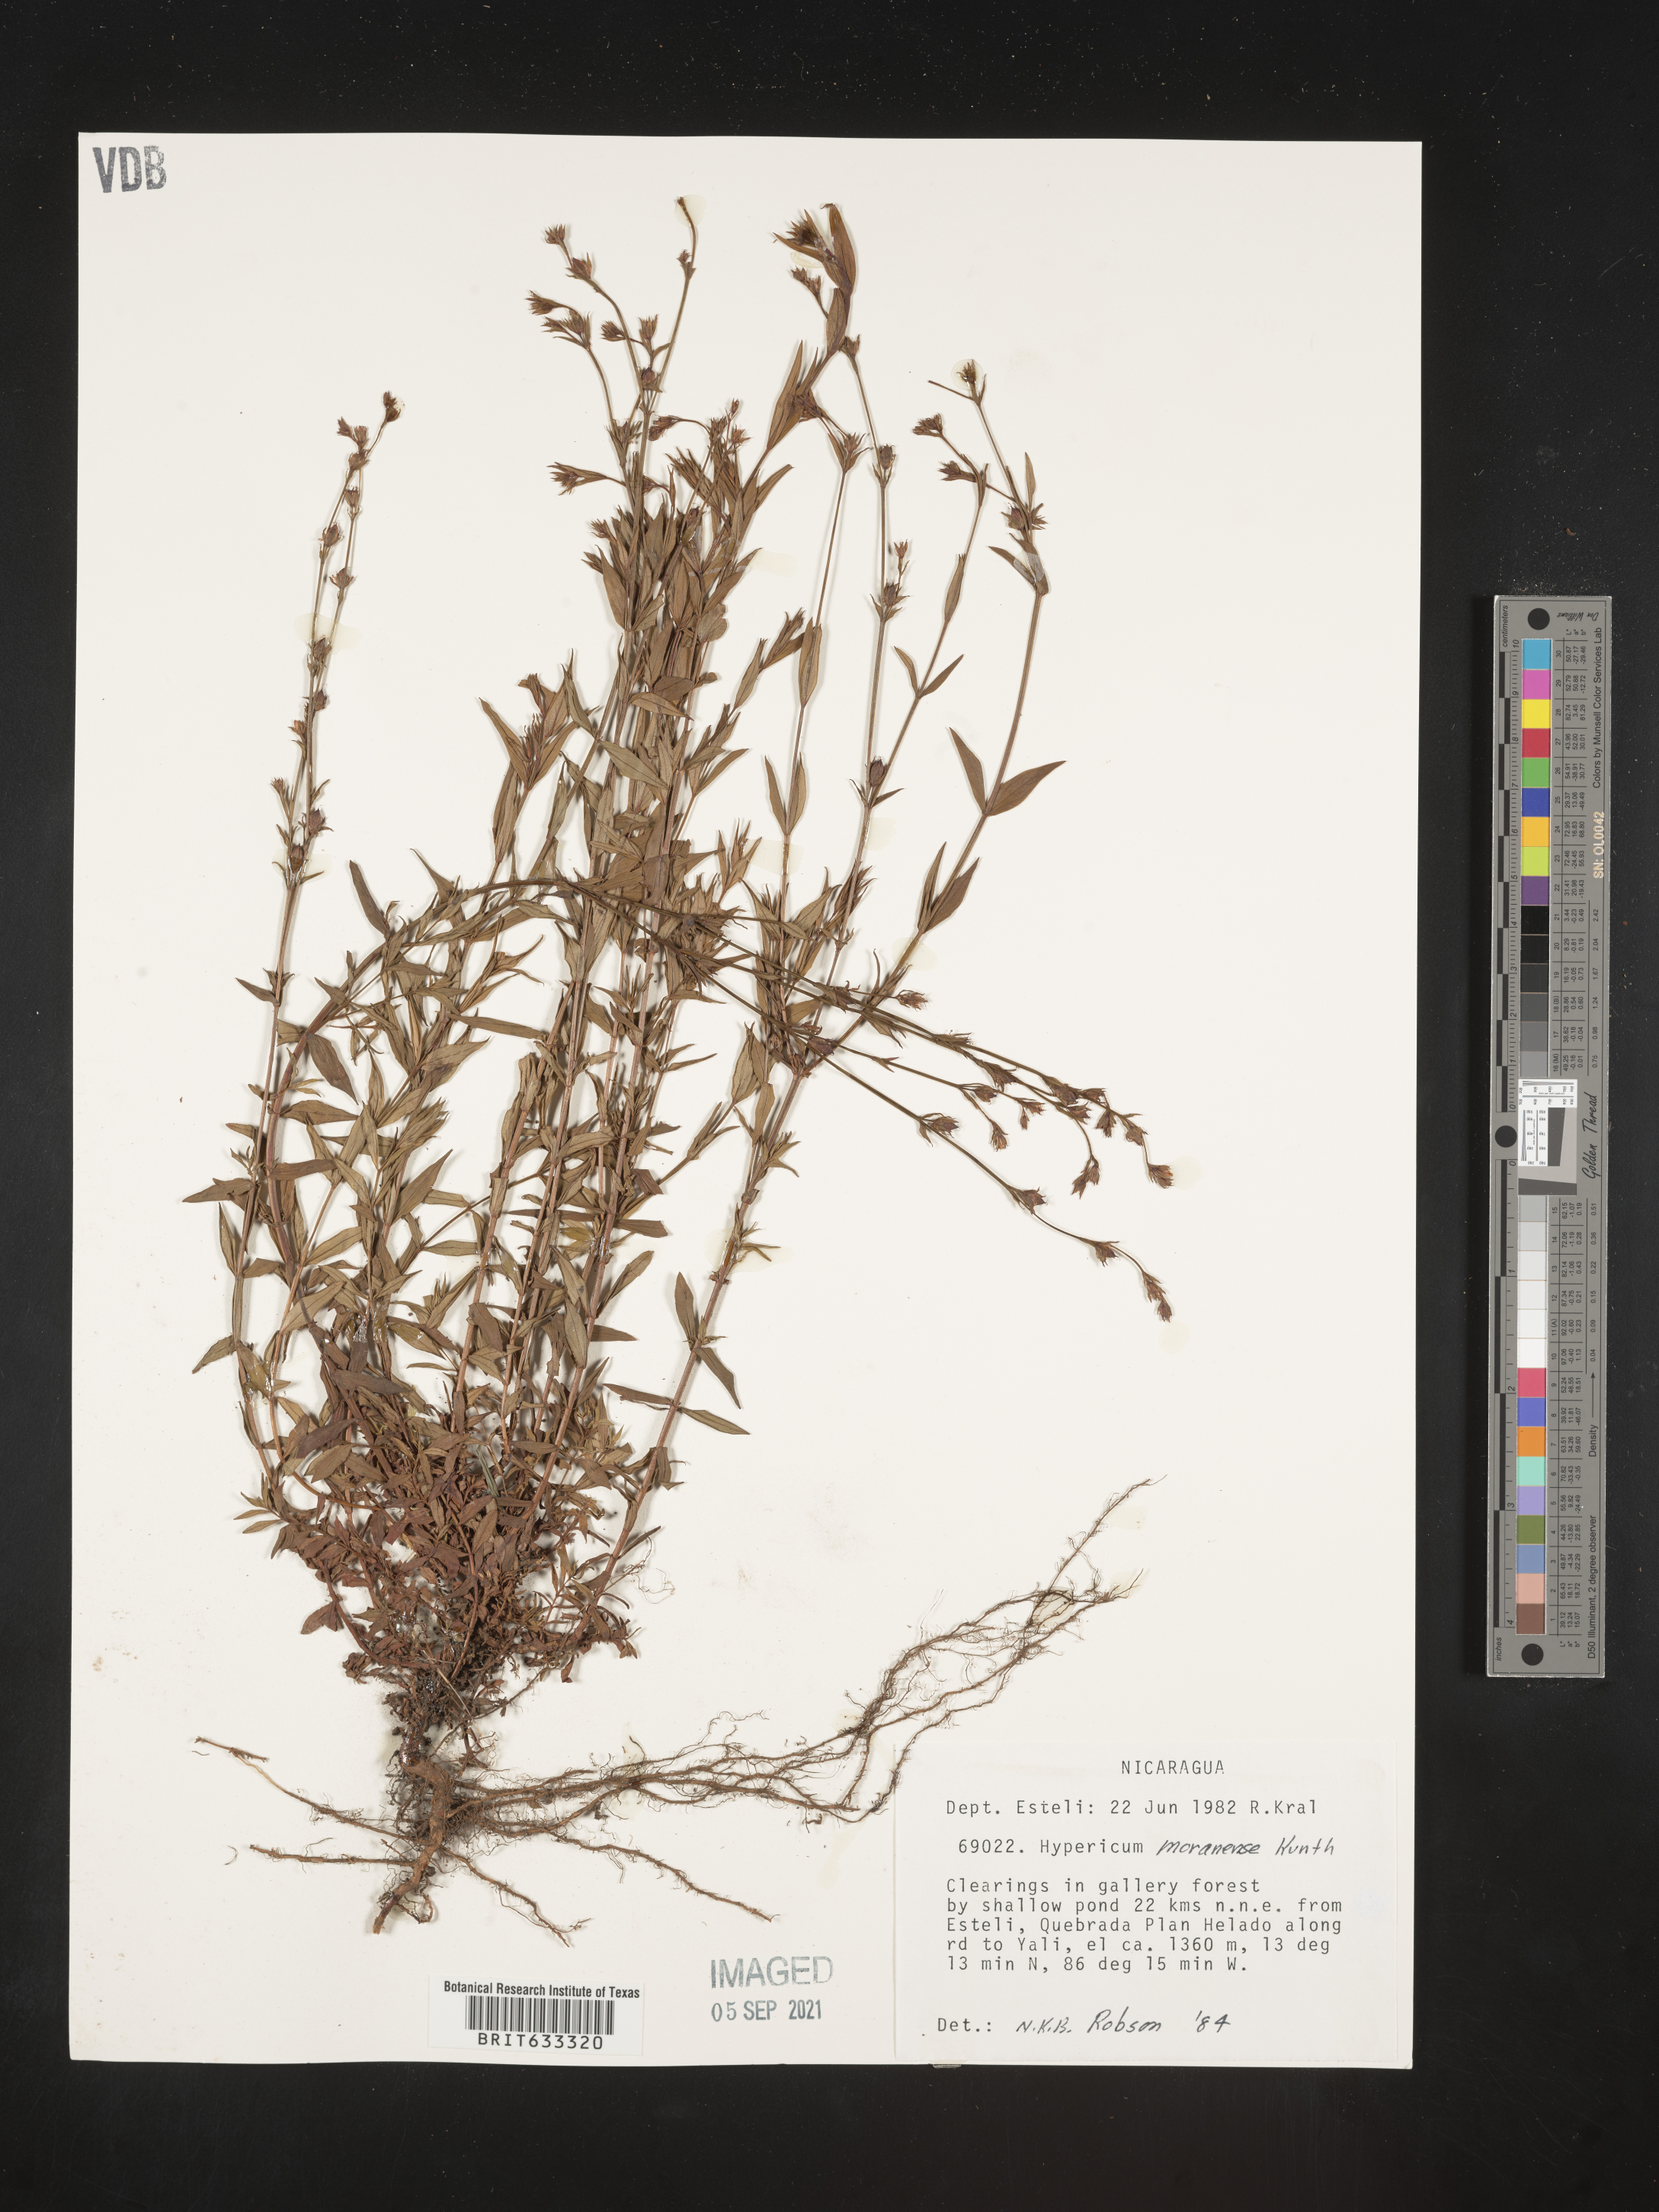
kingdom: Plantae
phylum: Tracheophyta
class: Magnoliopsida
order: Malpighiales
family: Hypericaceae
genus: Hypericum
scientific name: Hypericum
